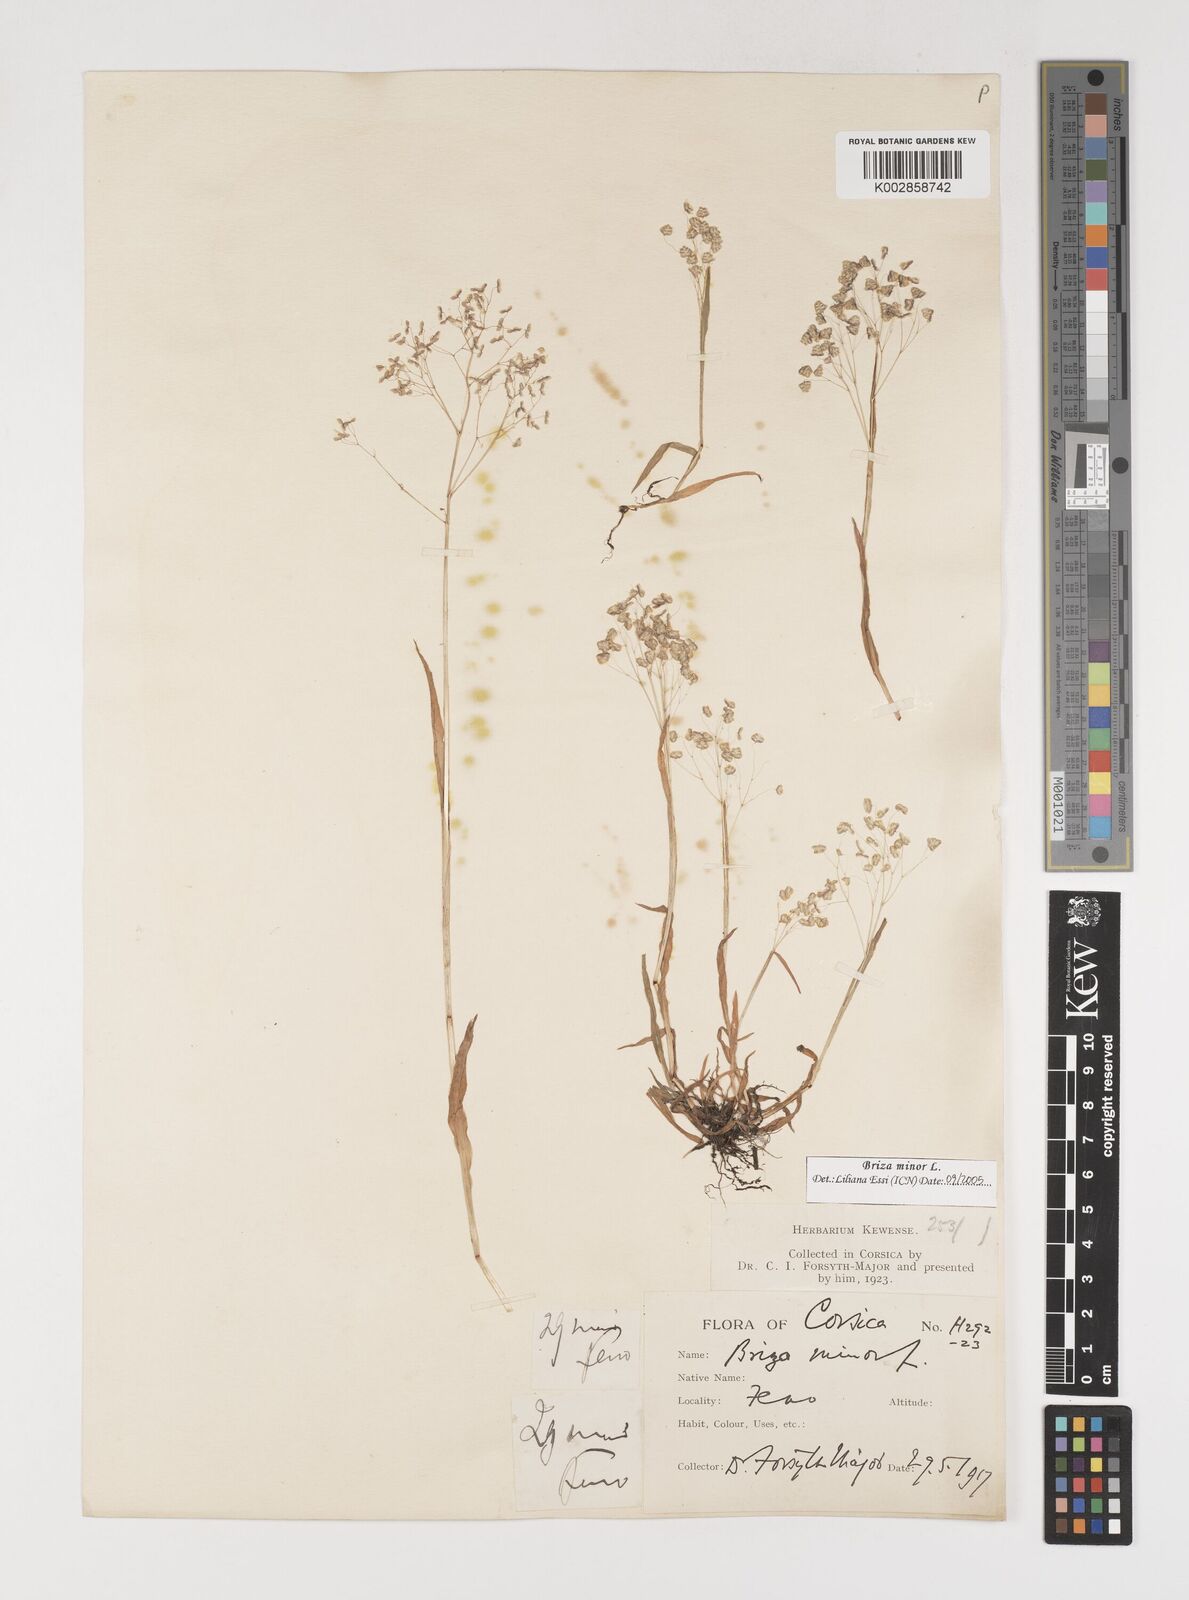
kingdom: Plantae
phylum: Tracheophyta
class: Liliopsida
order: Poales
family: Poaceae
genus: Briza
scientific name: Briza minor
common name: Lesser quaking-grass
